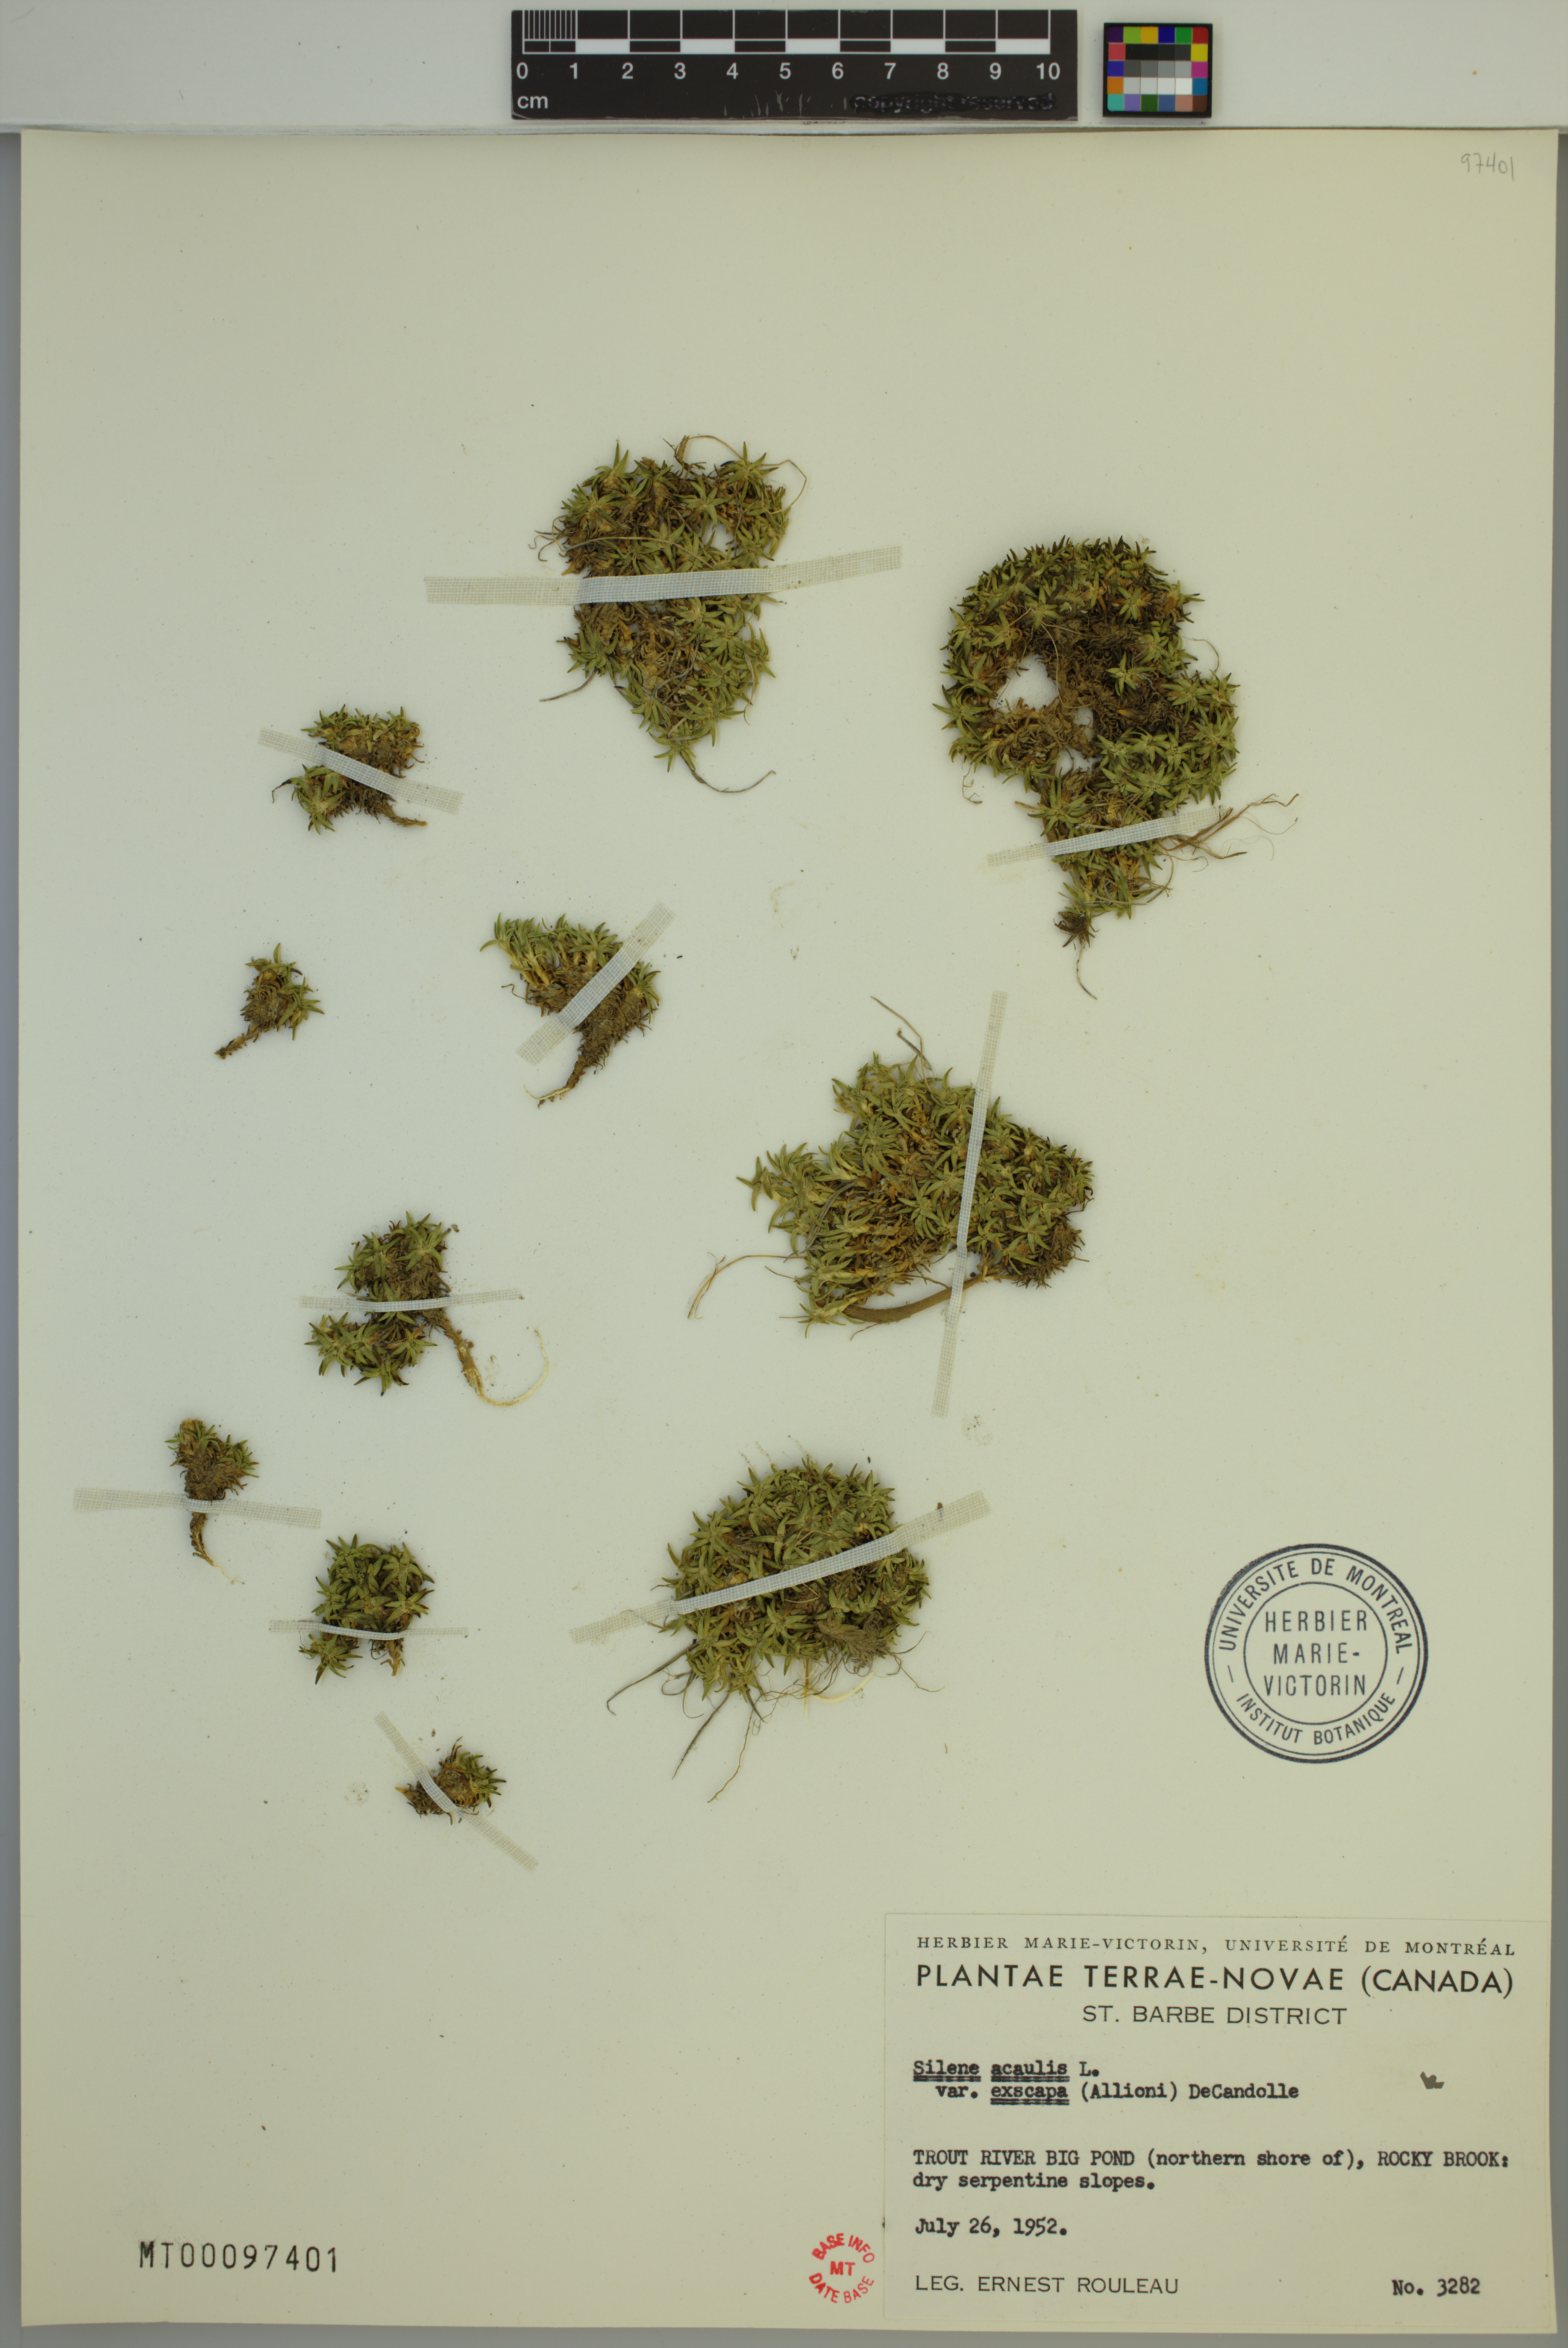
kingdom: Plantae
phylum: Tracheophyta
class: Magnoliopsida
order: Caryophyllales
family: Caryophyllaceae
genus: Silene
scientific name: Silene acaulis
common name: Moss campion
